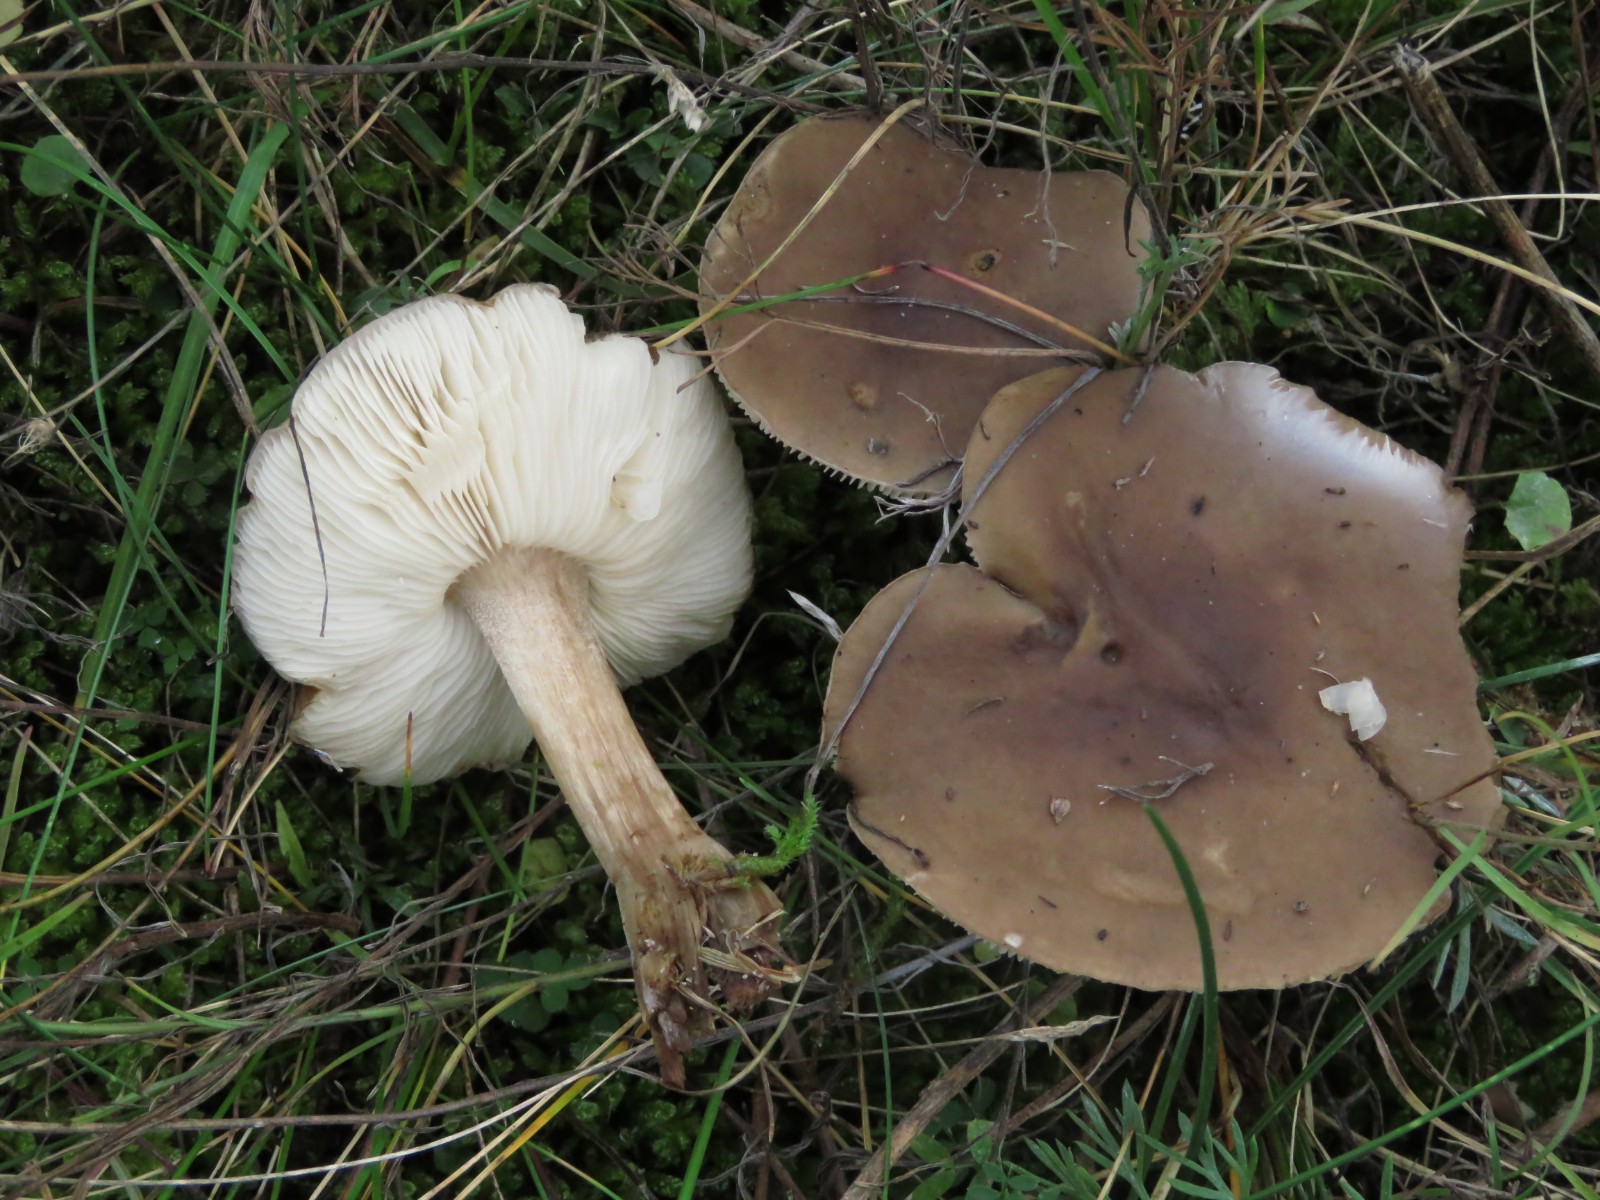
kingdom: Fungi
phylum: Basidiomycota
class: Agaricomycetes
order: Agaricales
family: Tricholomataceae
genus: Melanoleuca
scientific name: Melanoleuca polioleuca
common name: almindelig munkehat
